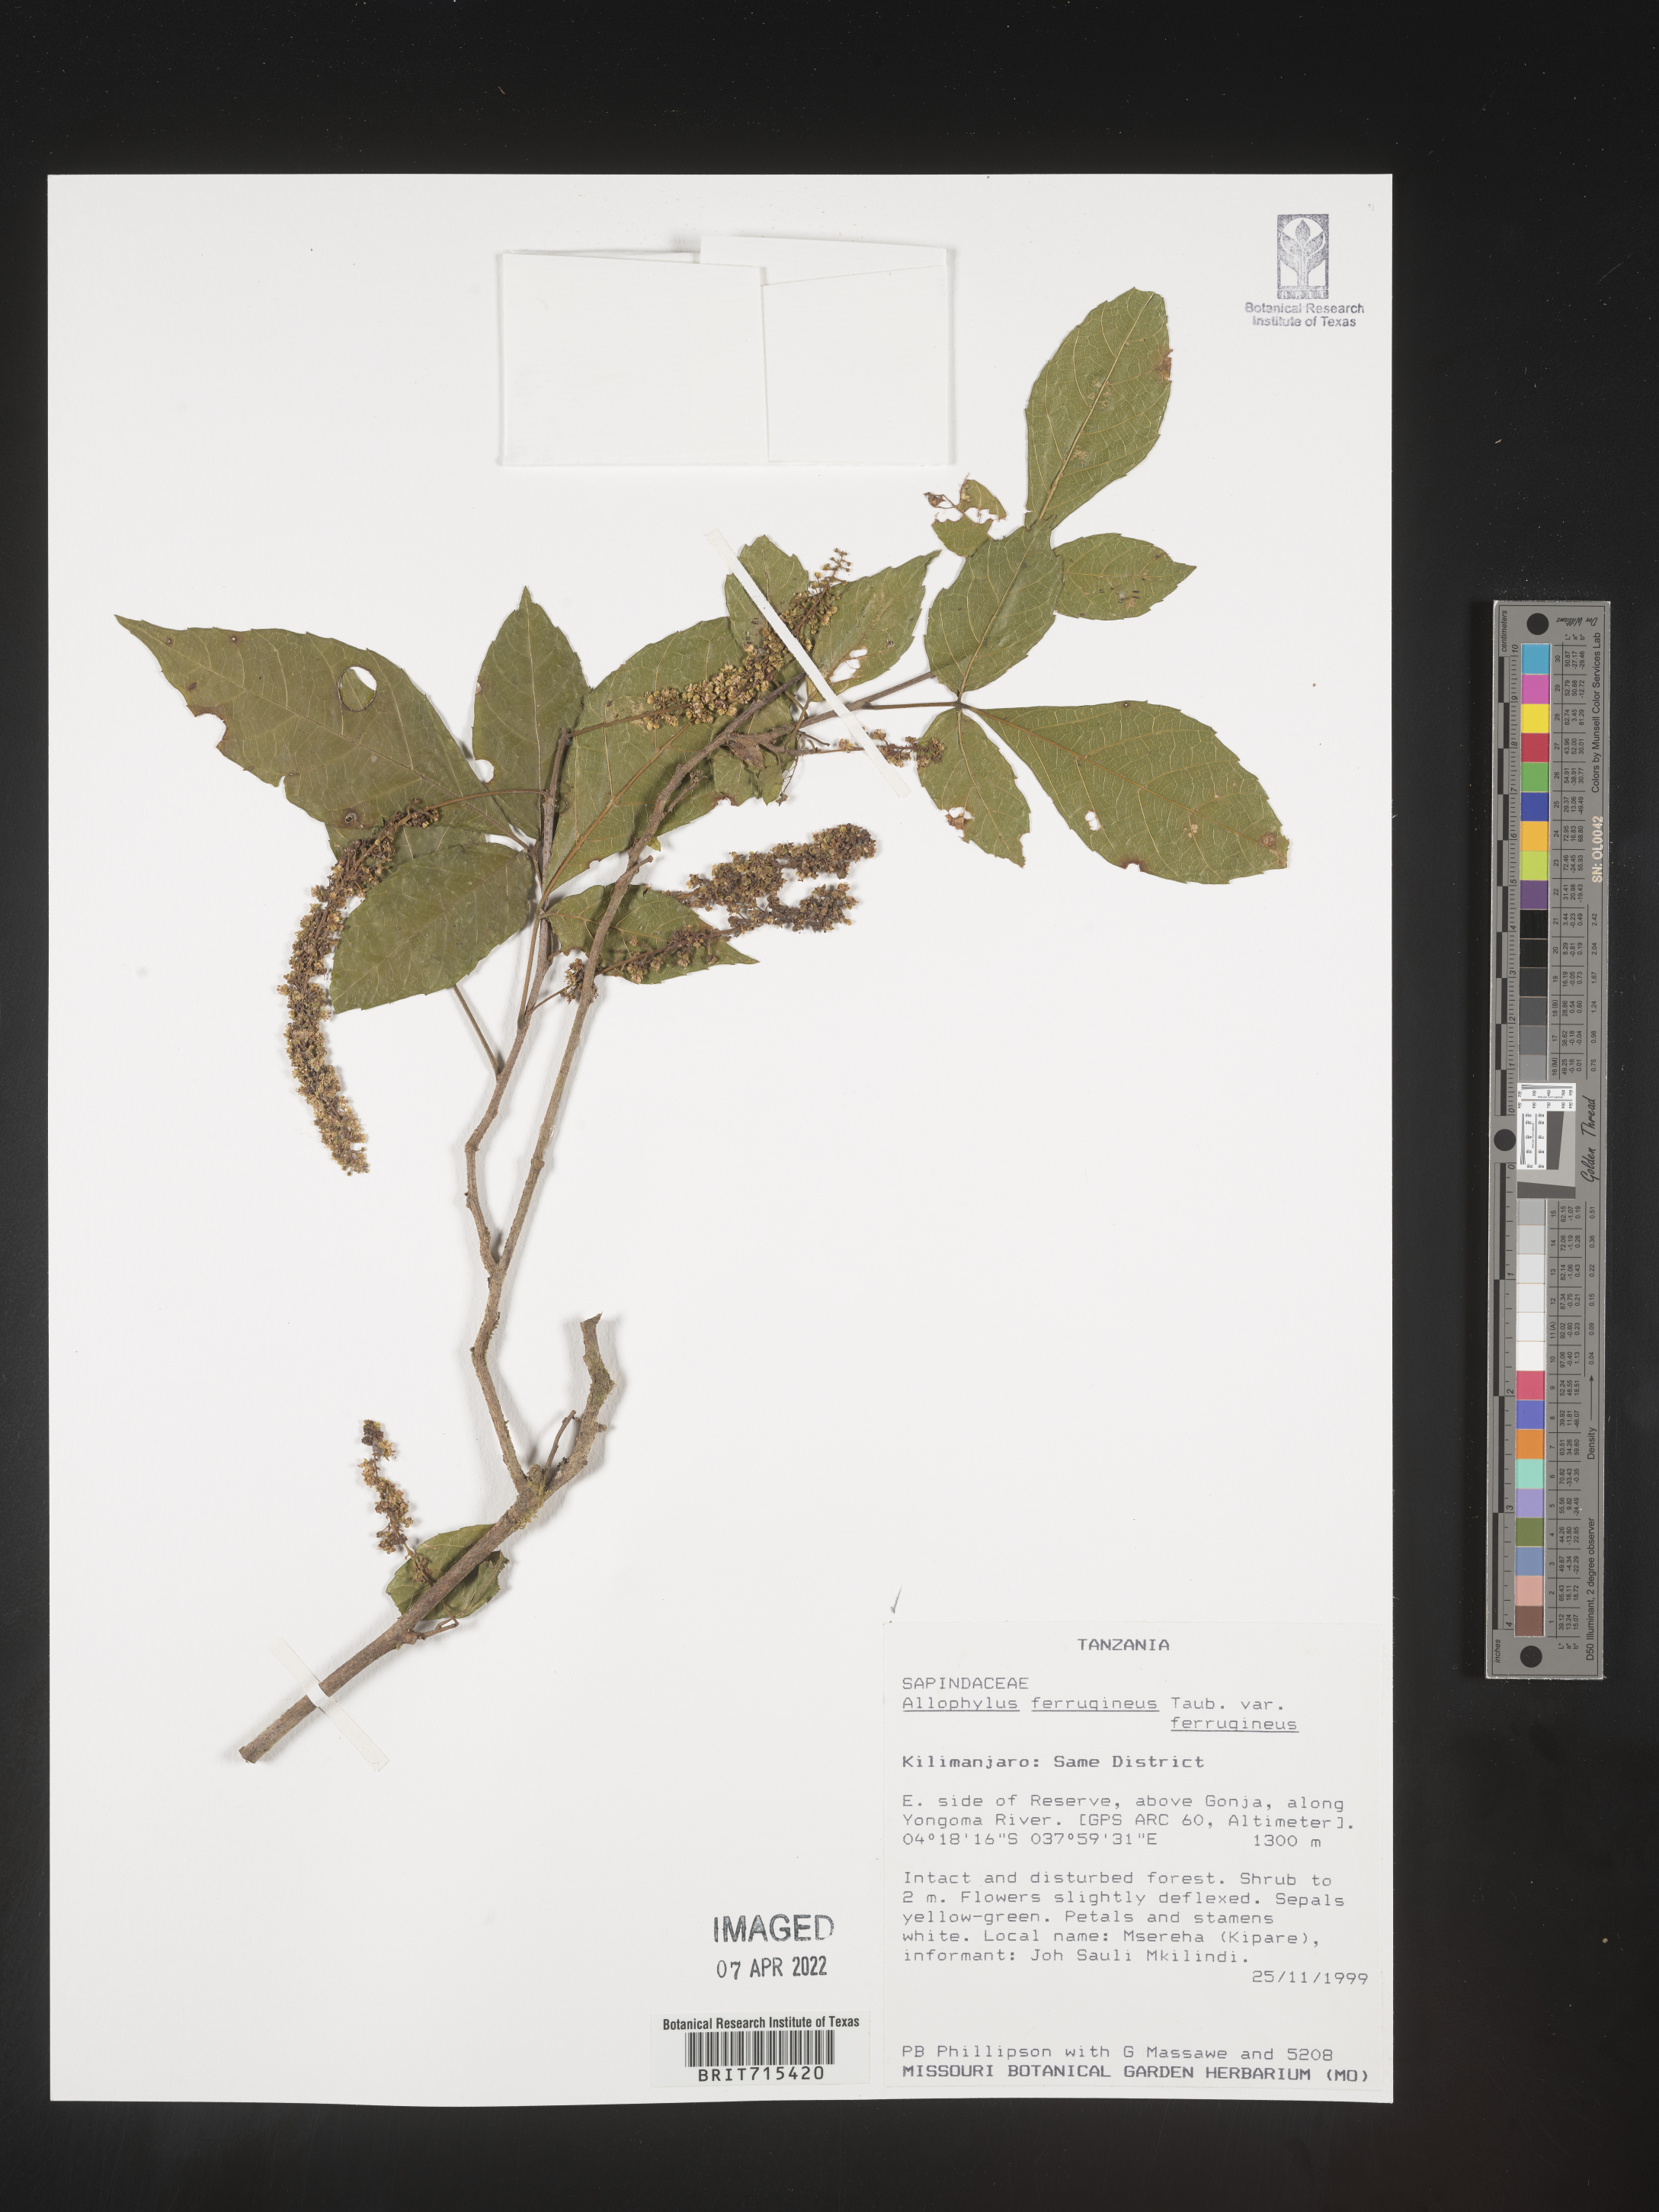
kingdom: Plantae
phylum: Tracheophyta
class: Magnoliopsida
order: Sapindales
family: Sapindaceae
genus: Allophylus
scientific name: Allophylus ferrugineus
